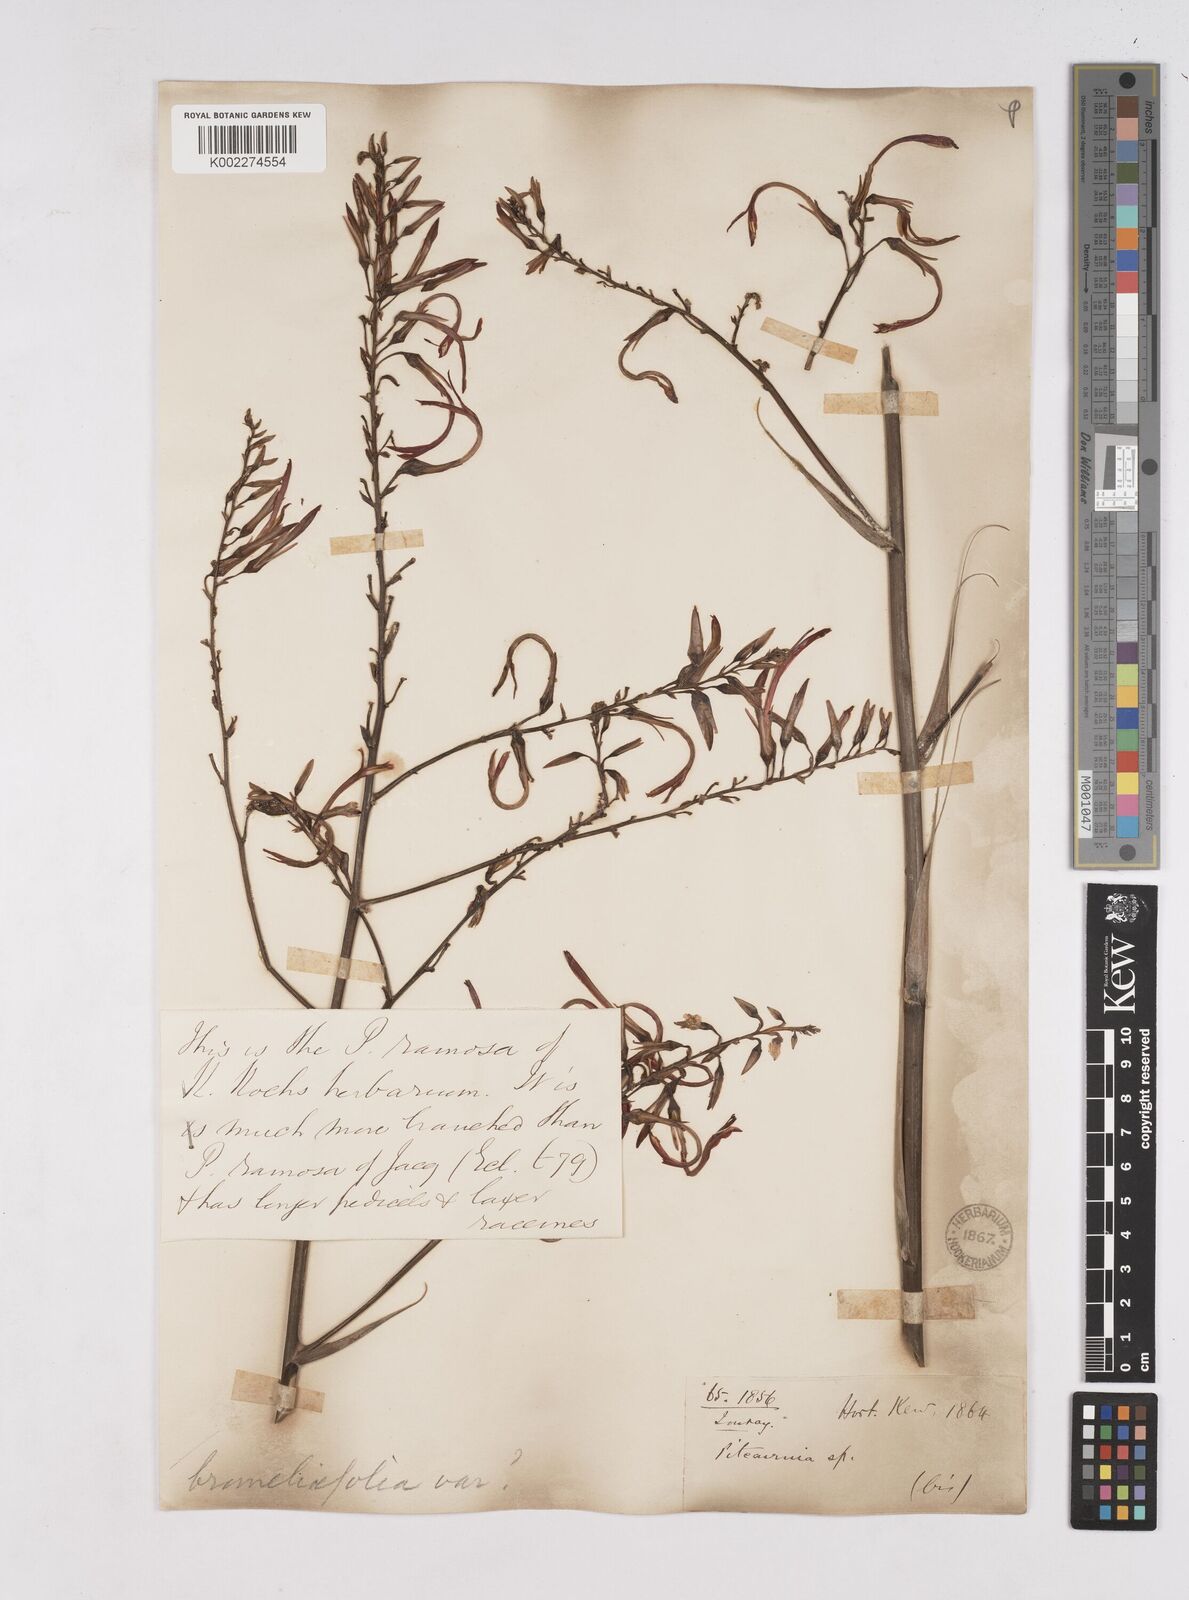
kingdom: Plantae
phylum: Tracheophyta
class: Liliopsida
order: Poales
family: Bromeliaceae
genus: Pitcairnia
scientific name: Pitcairnia angustifolia
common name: Clapper
